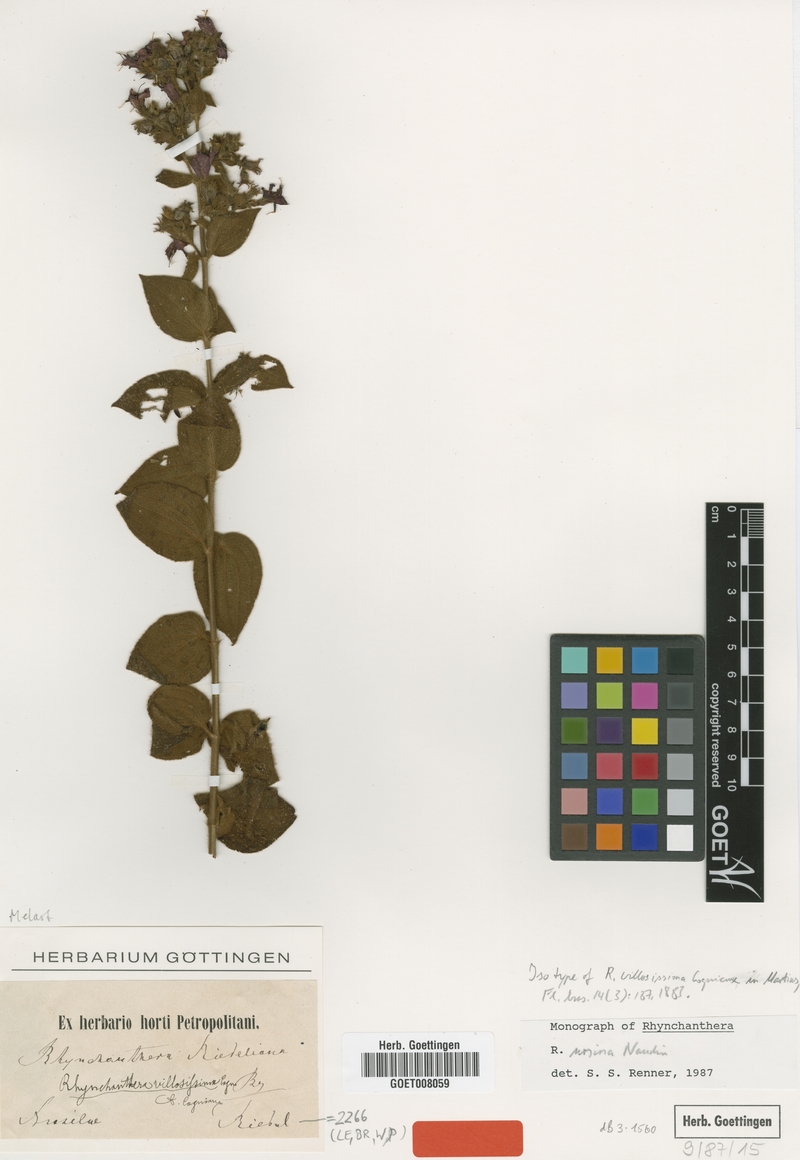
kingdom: Plantae
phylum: Tracheophyta
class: Magnoliopsida
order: Myrtales
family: Melastomataceae
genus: Rhynchanthera
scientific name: Rhynchanthera ursina
